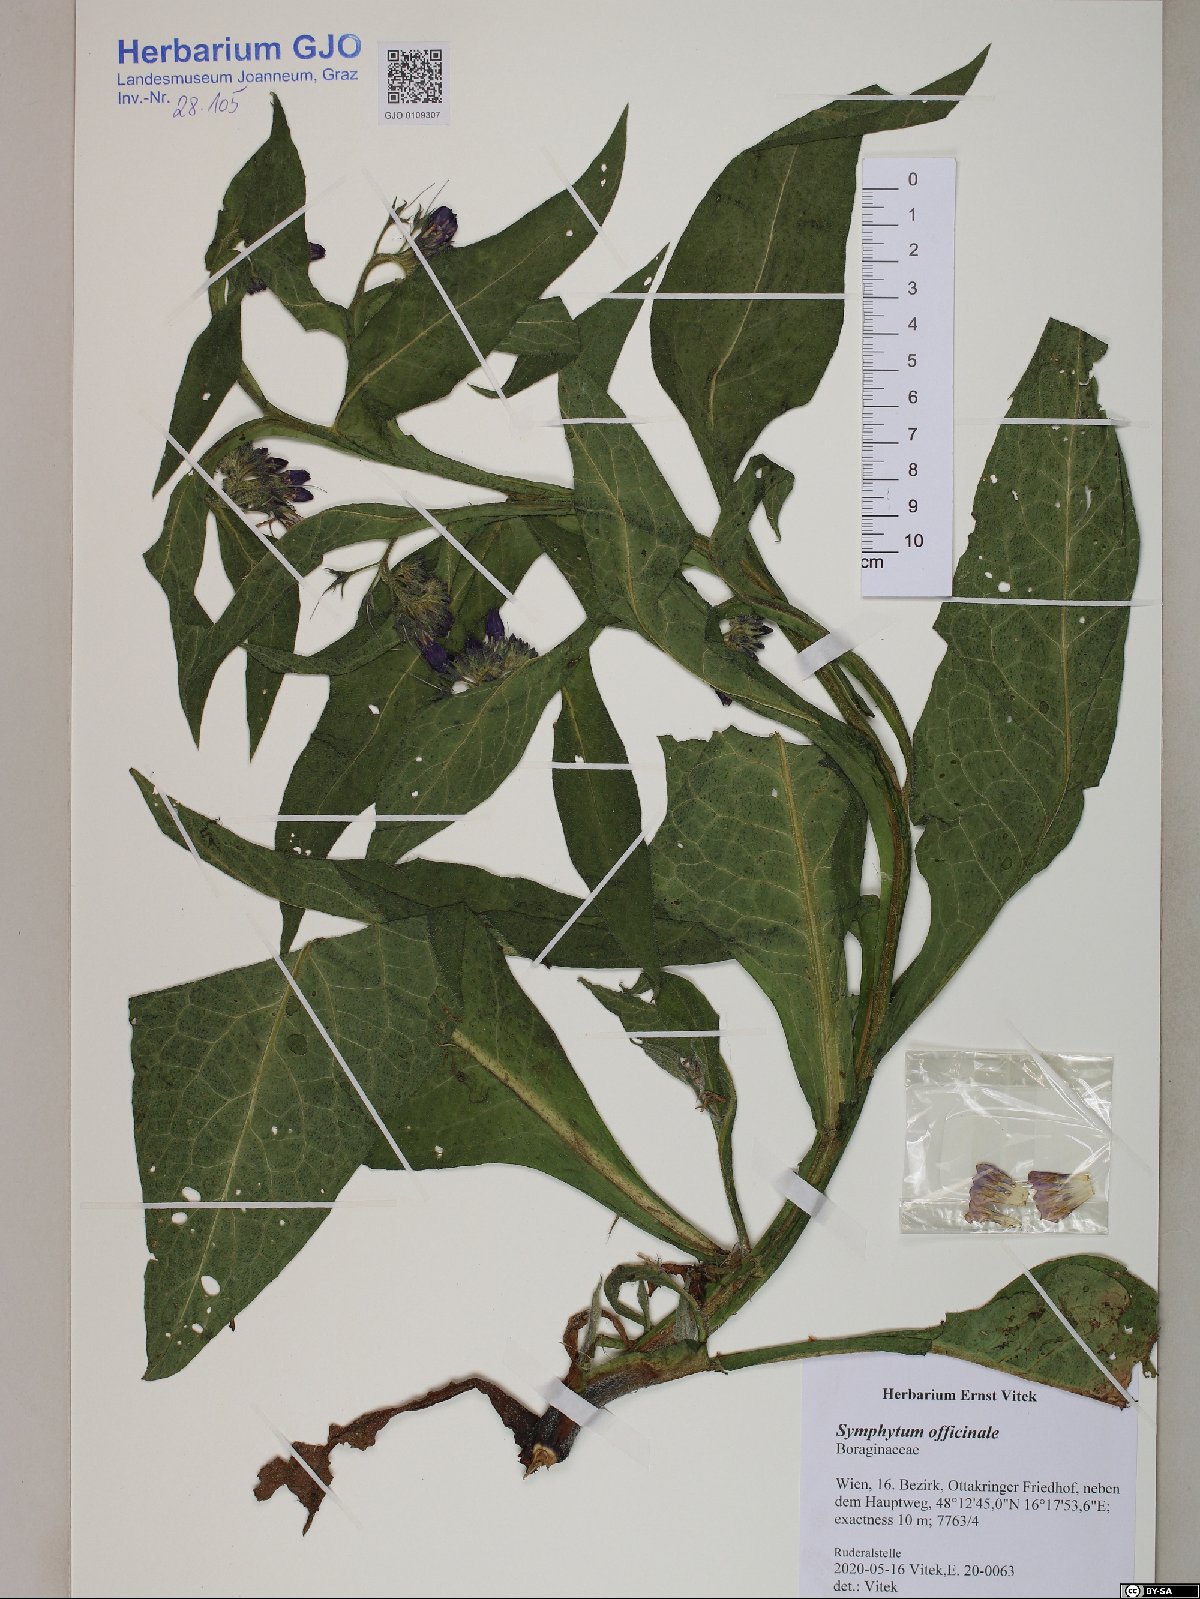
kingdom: Plantae
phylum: Tracheophyta
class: Magnoliopsida
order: Boraginales
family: Boraginaceae
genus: Symphytum
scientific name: Symphytum officinale
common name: Common comfrey
